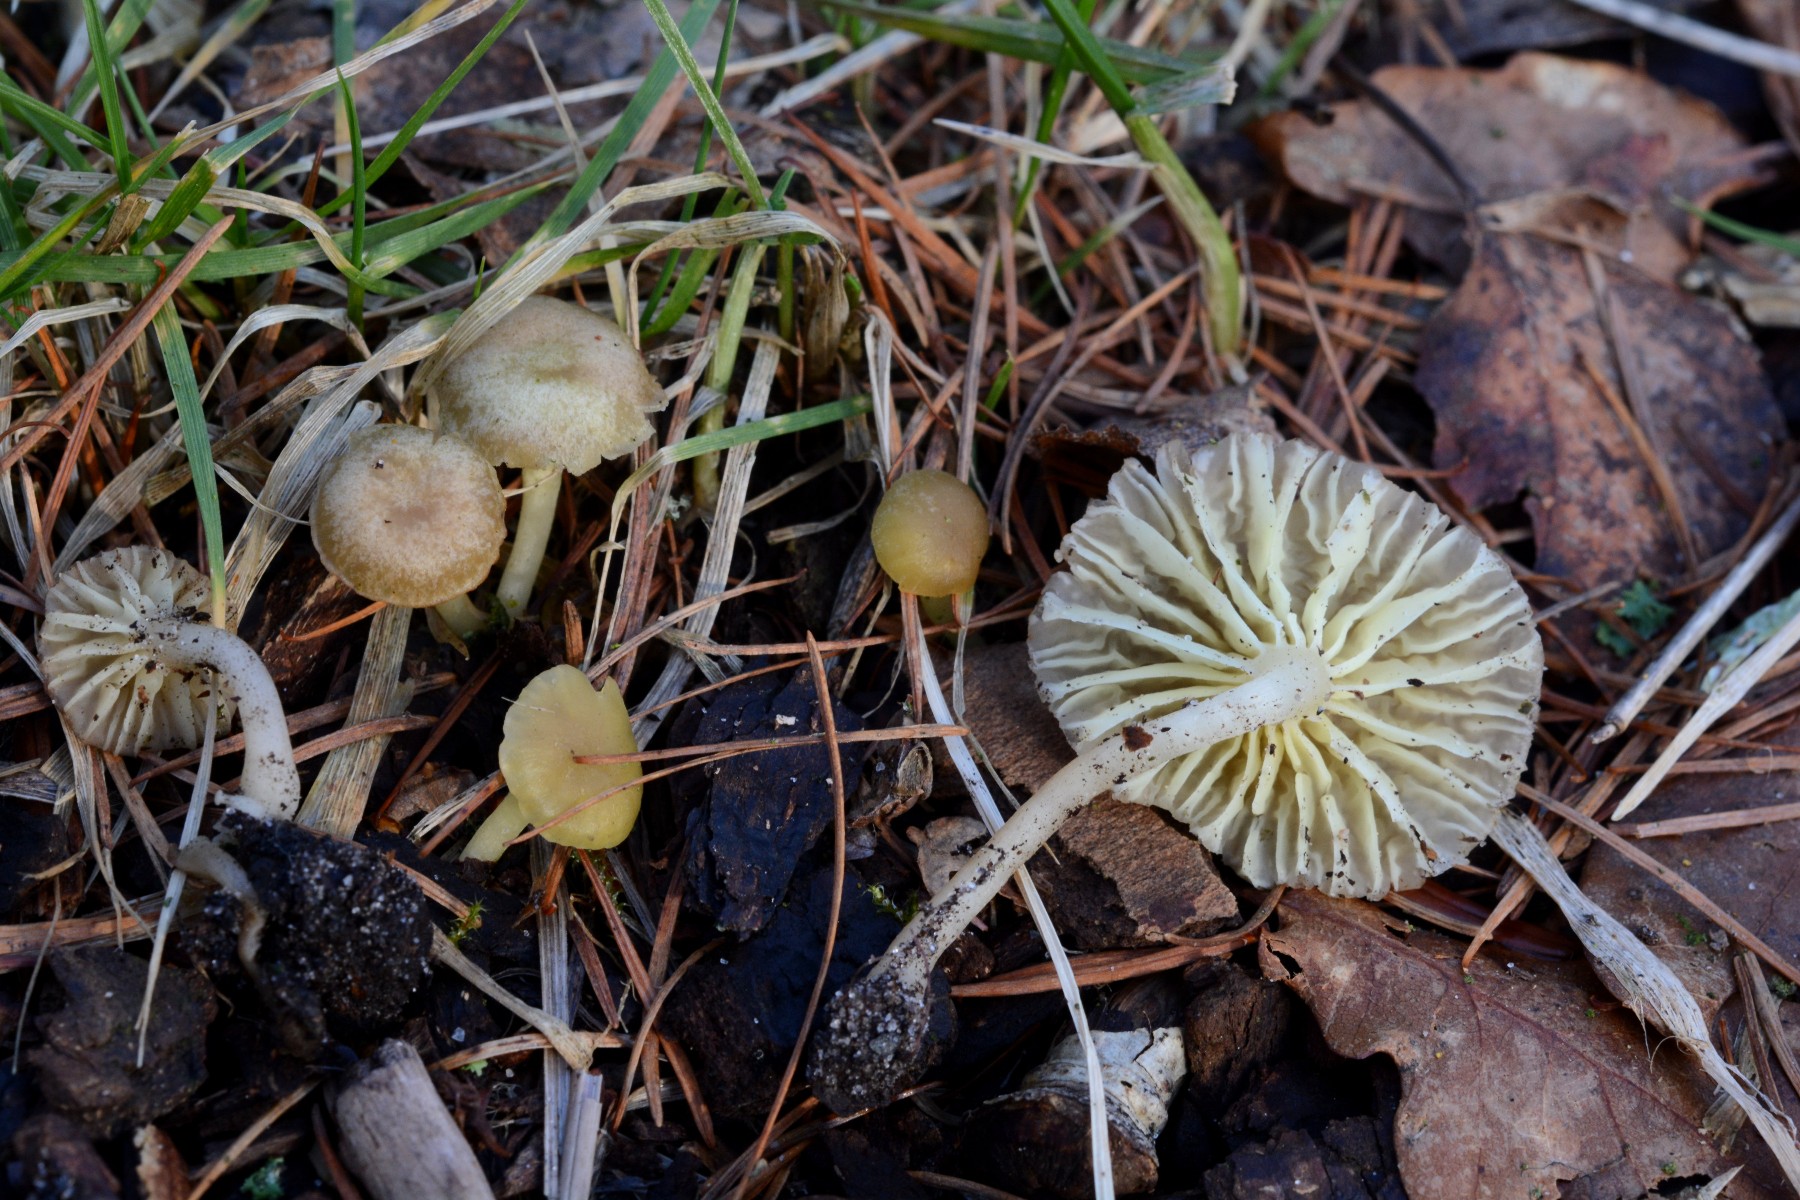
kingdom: Fungi
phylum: Basidiomycota
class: Agaricomycetes
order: Agaricales
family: Hygrophoraceae
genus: Chrysomphalina
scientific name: Chrysomphalina grossula
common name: stød-gyldenblad
